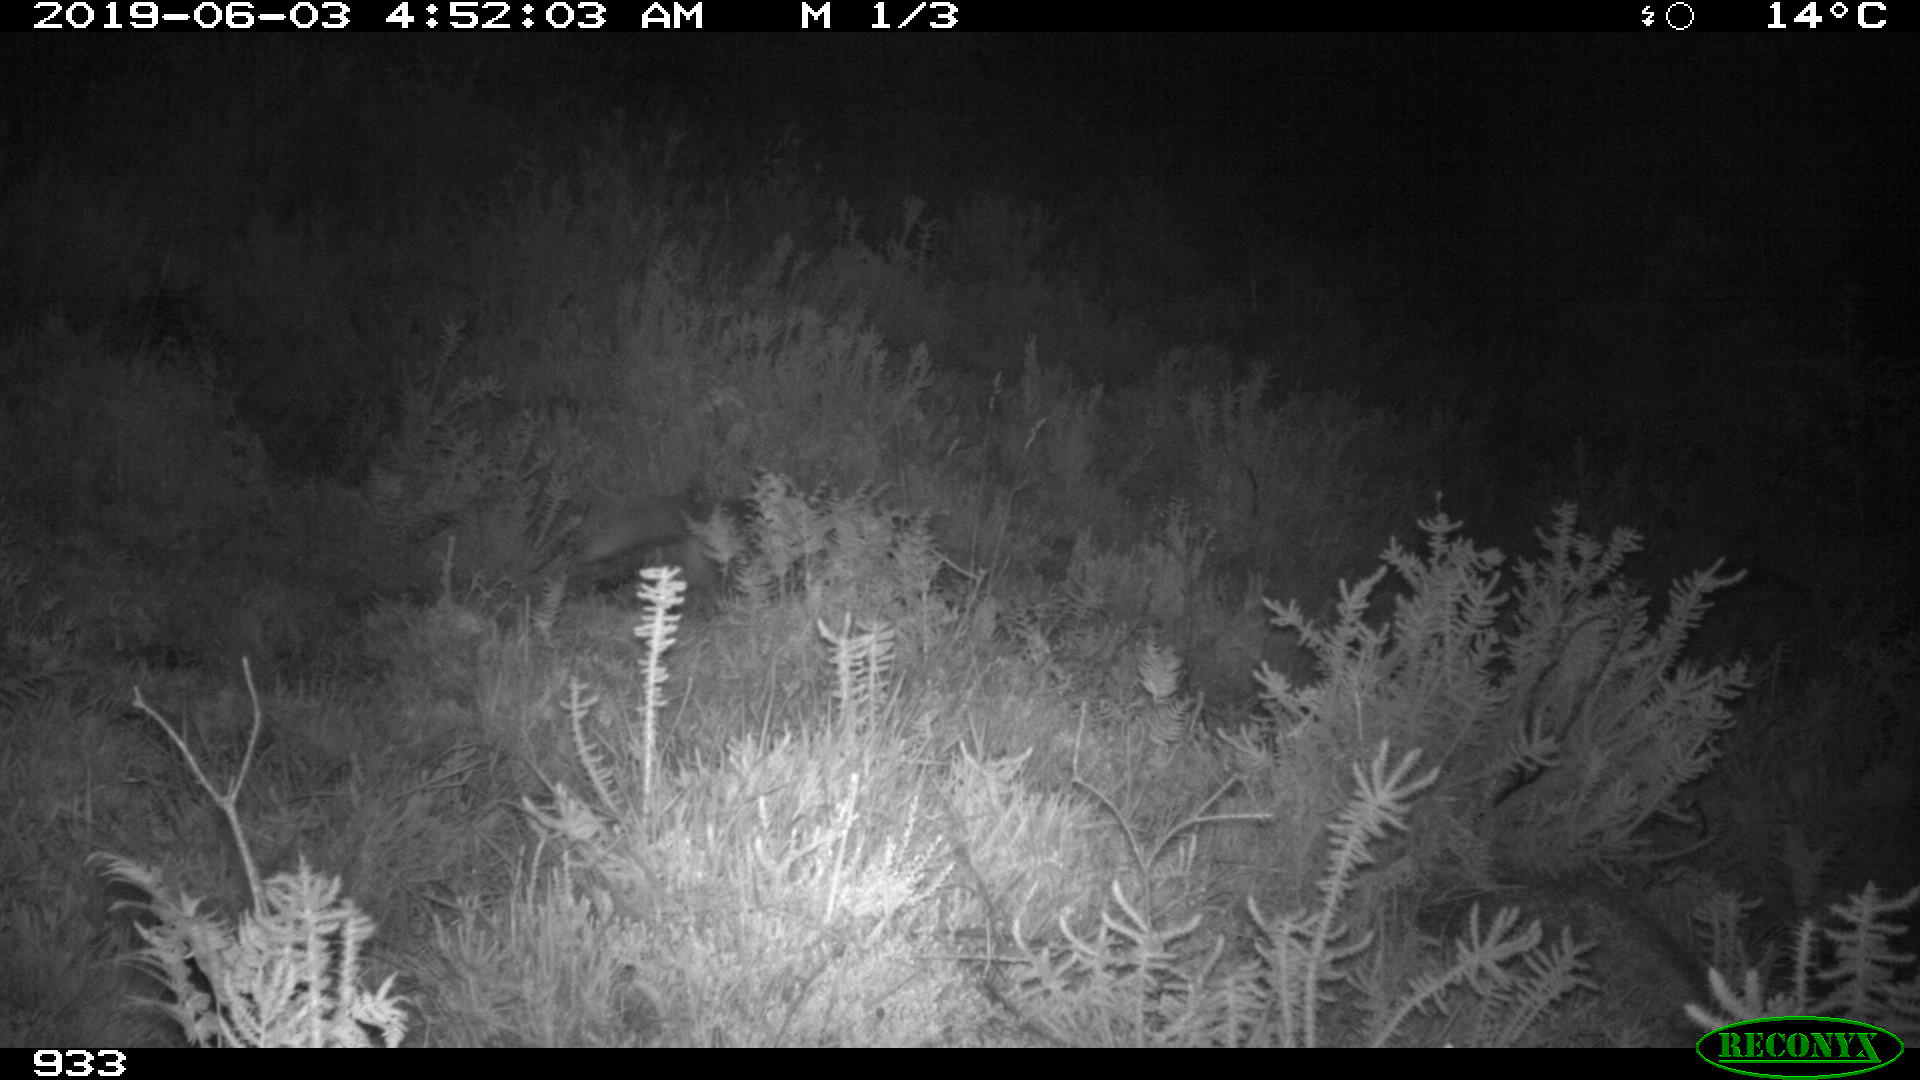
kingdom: Animalia
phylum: Chordata
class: Mammalia
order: Carnivora
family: Canidae
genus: Vulpes
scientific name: Vulpes vulpes
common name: Red fox
